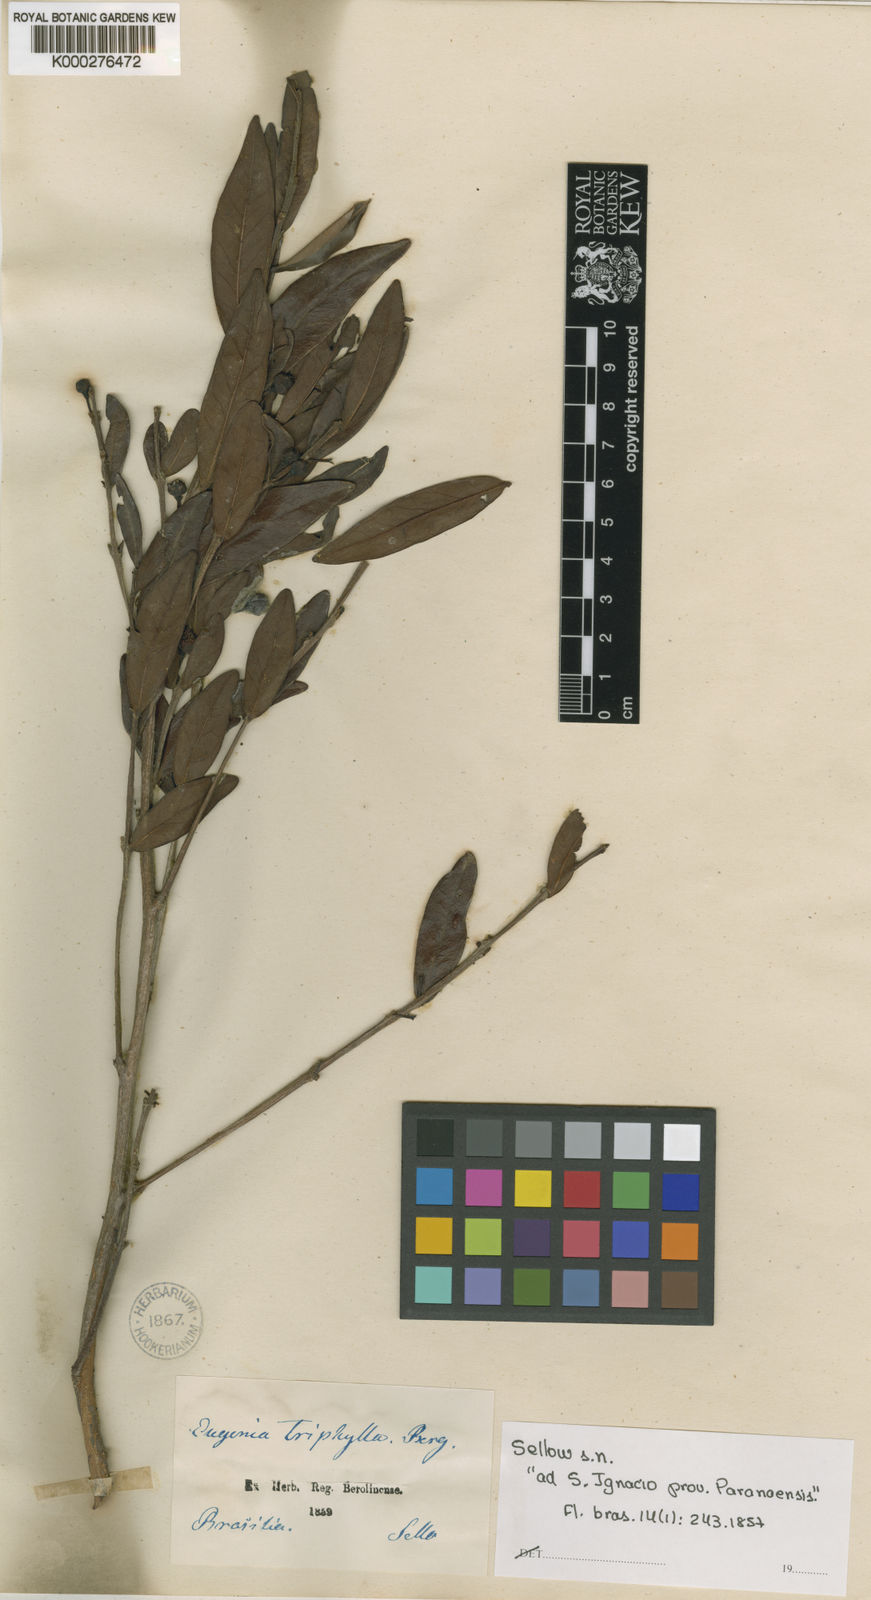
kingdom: Plantae
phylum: Tracheophyta
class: Magnoliopsida
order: Myrtales
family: Myrtaceae
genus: Eugenia
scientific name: Eugenia punicifolia
